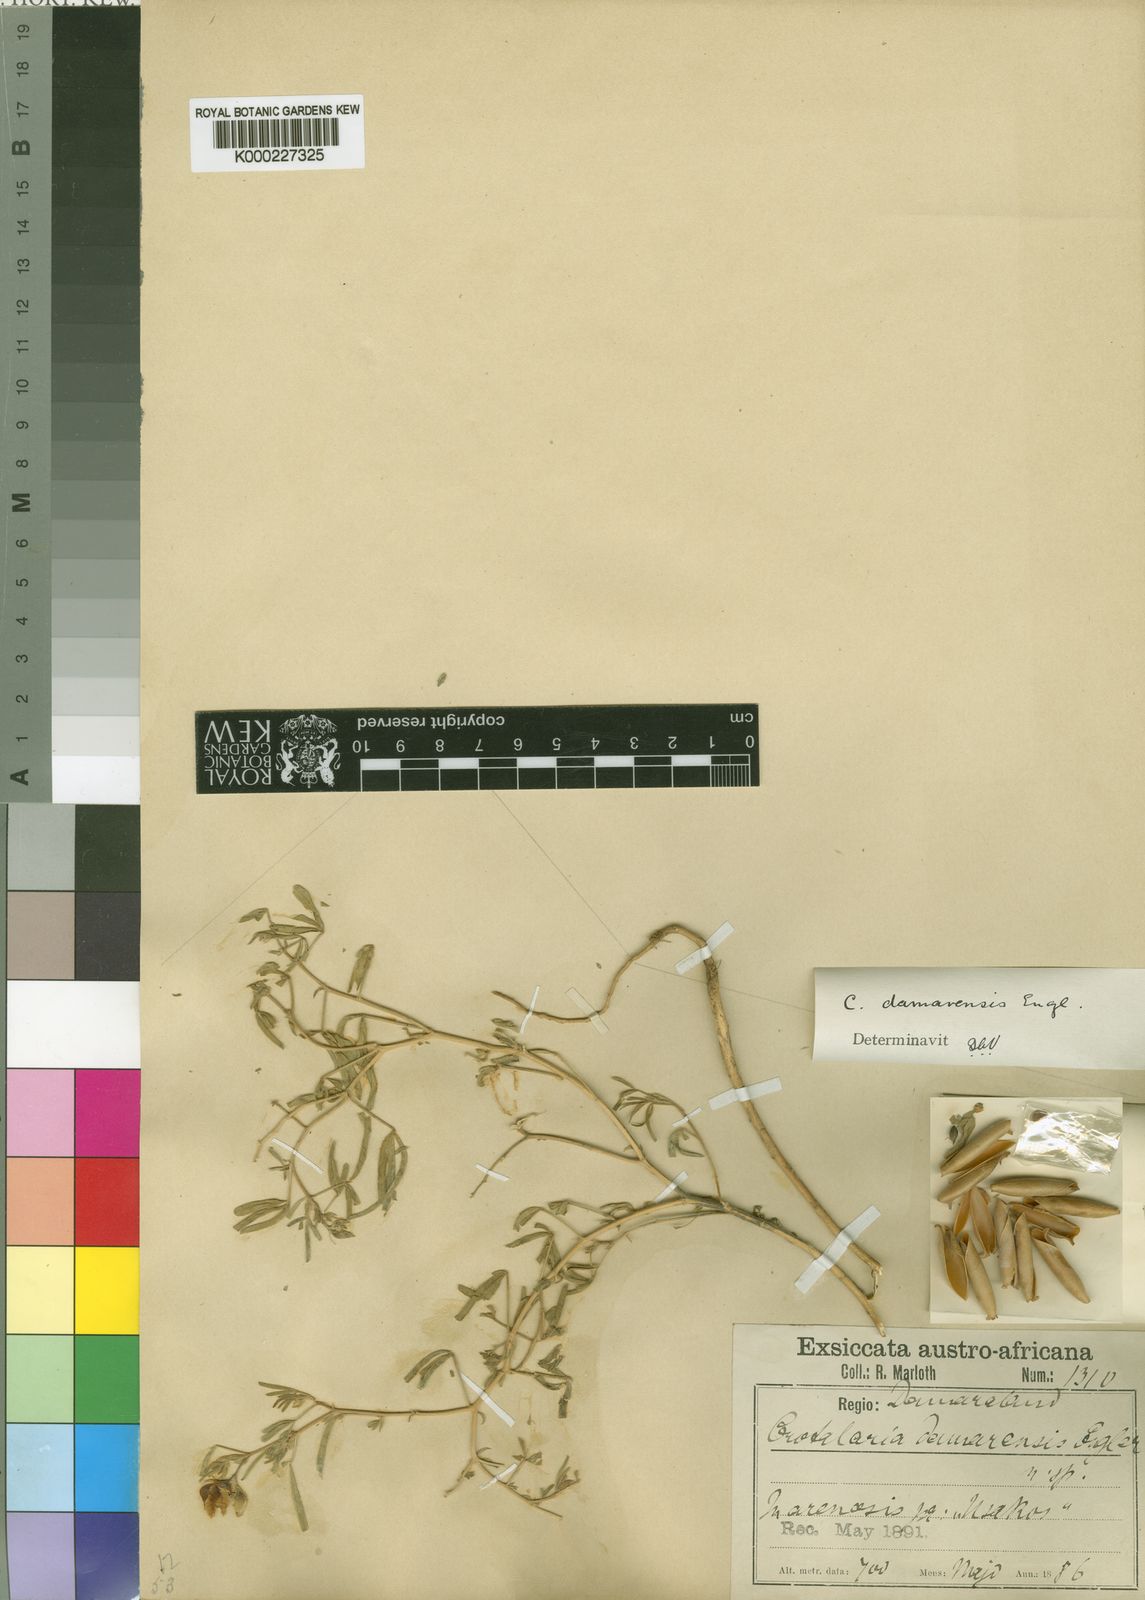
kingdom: Plantae
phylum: Tracheophyta
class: Magnoliopsida
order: Fabales
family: Fabaceae
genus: Crotalaria
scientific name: Crotalaria damarensis
